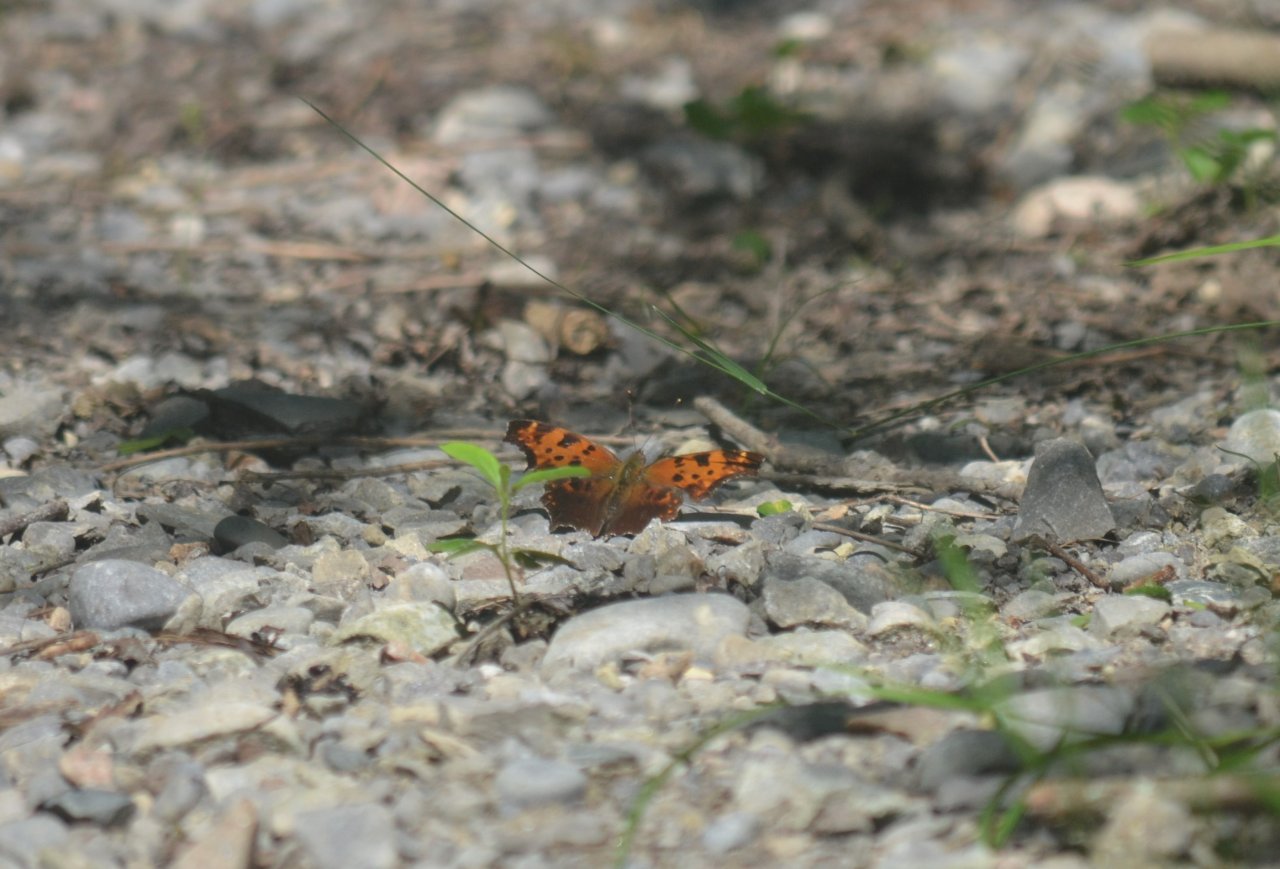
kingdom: Animalia
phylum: Arthropoda
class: Insecta
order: Lepidoptera
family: Nymphalidae
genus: Polygonia
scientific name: Polygonia comma
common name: Eastern Comma
